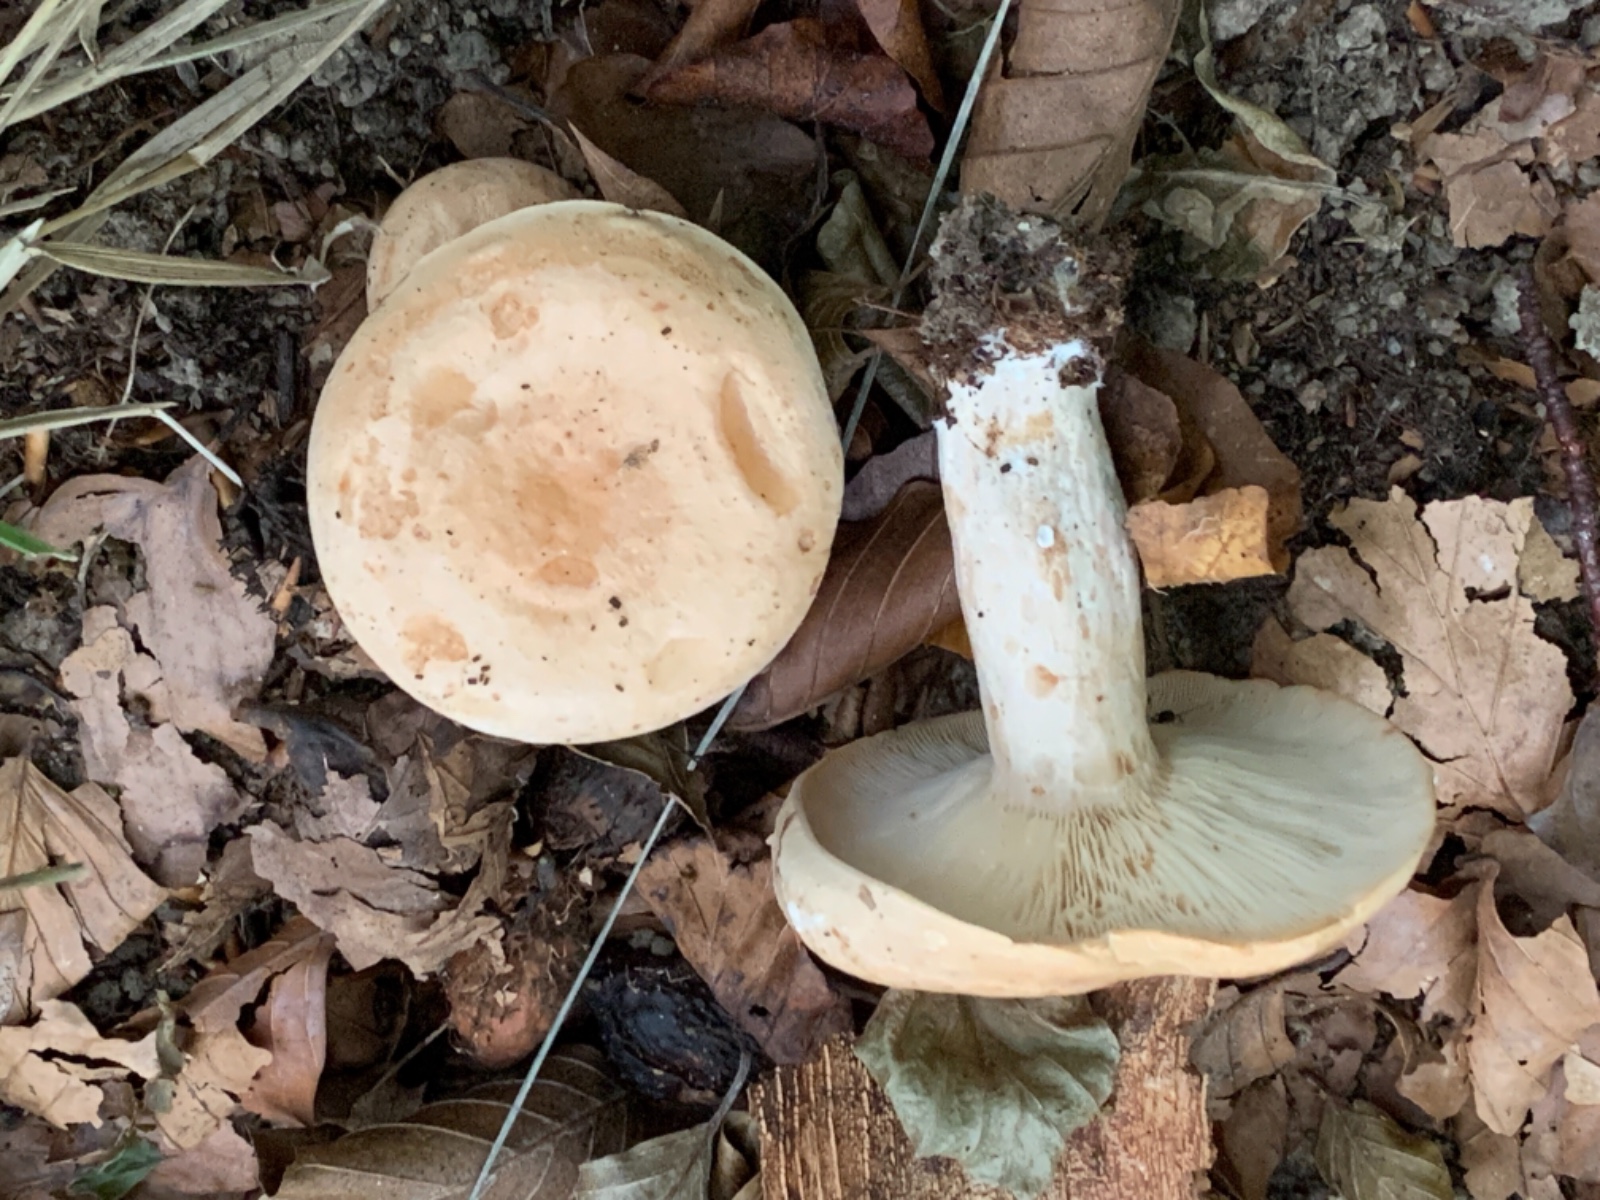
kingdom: Fungi
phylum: Basidiomycota
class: Agaricomycetes
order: Russulales
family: Russulaceae
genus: Lactarius
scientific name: Lactarius pallidus
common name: bleg mælkehat
